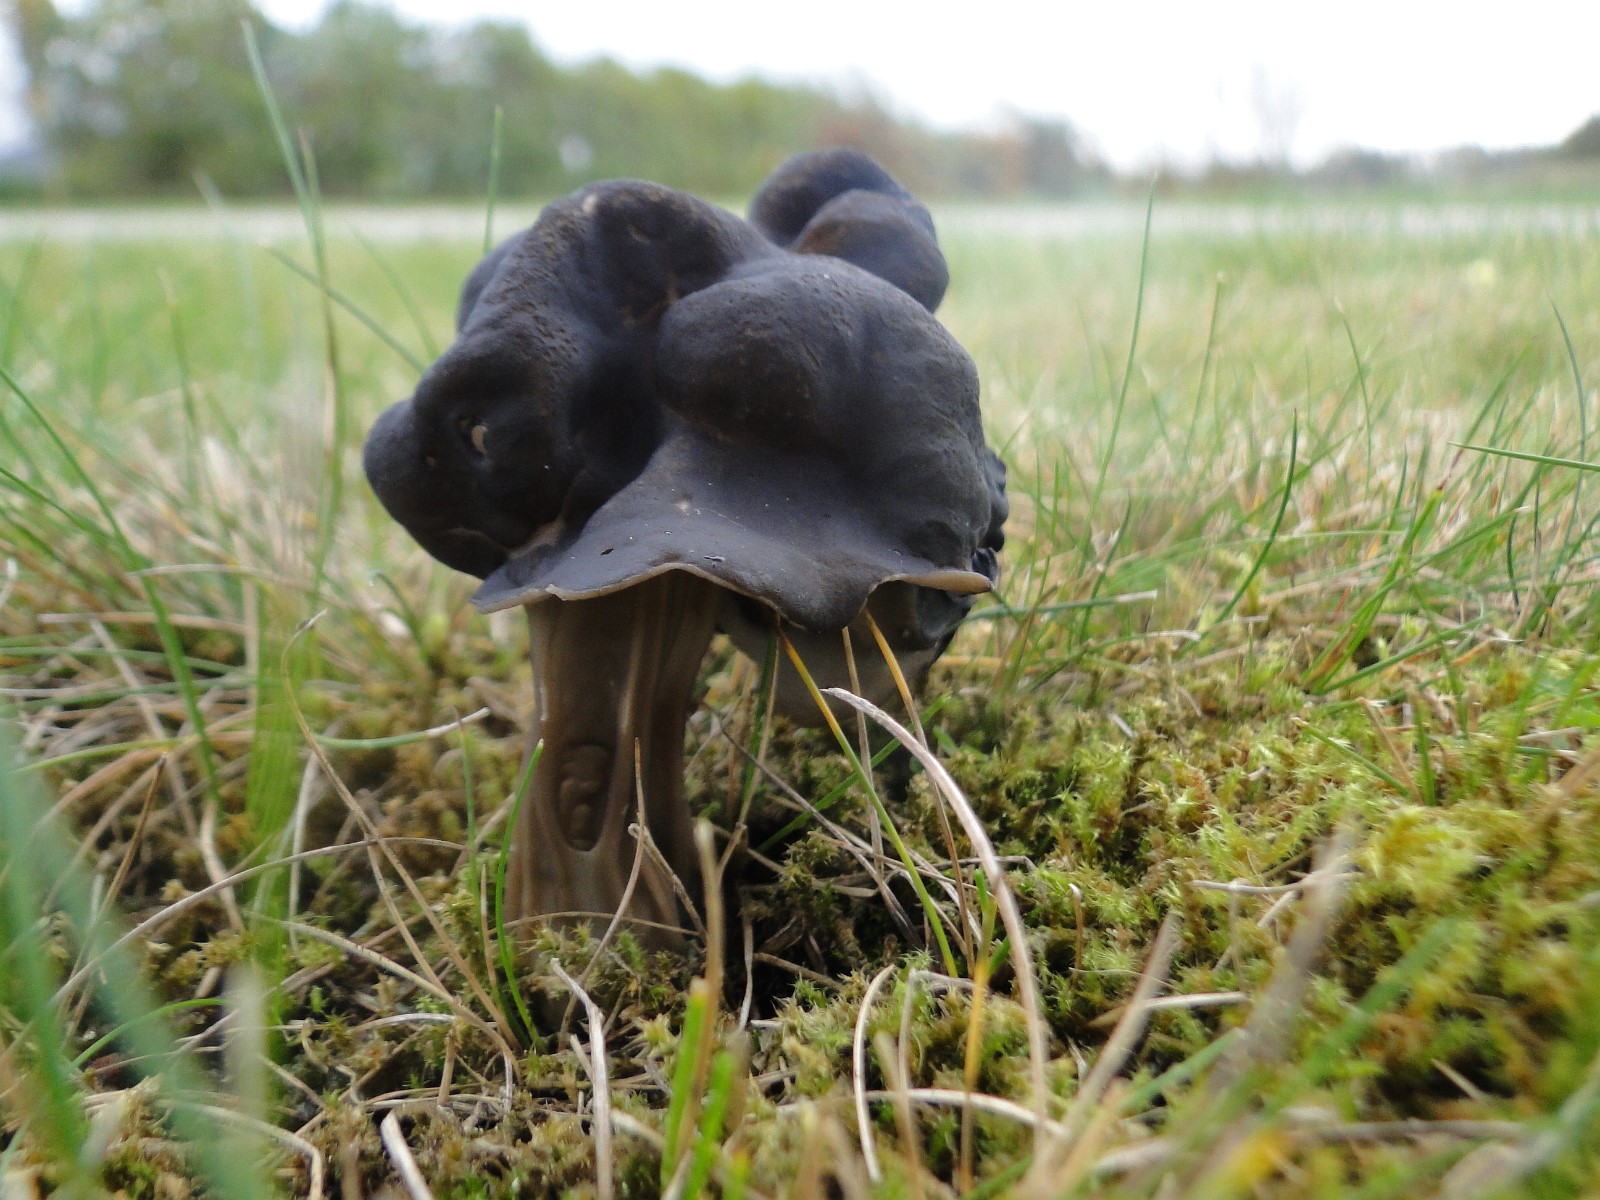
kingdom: Fungi
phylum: Ascomycota
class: Pezizomycetes
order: Pezizales
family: Helvellaceae
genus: Helvella
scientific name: Helvella lacunosa
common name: grubet foldhat
